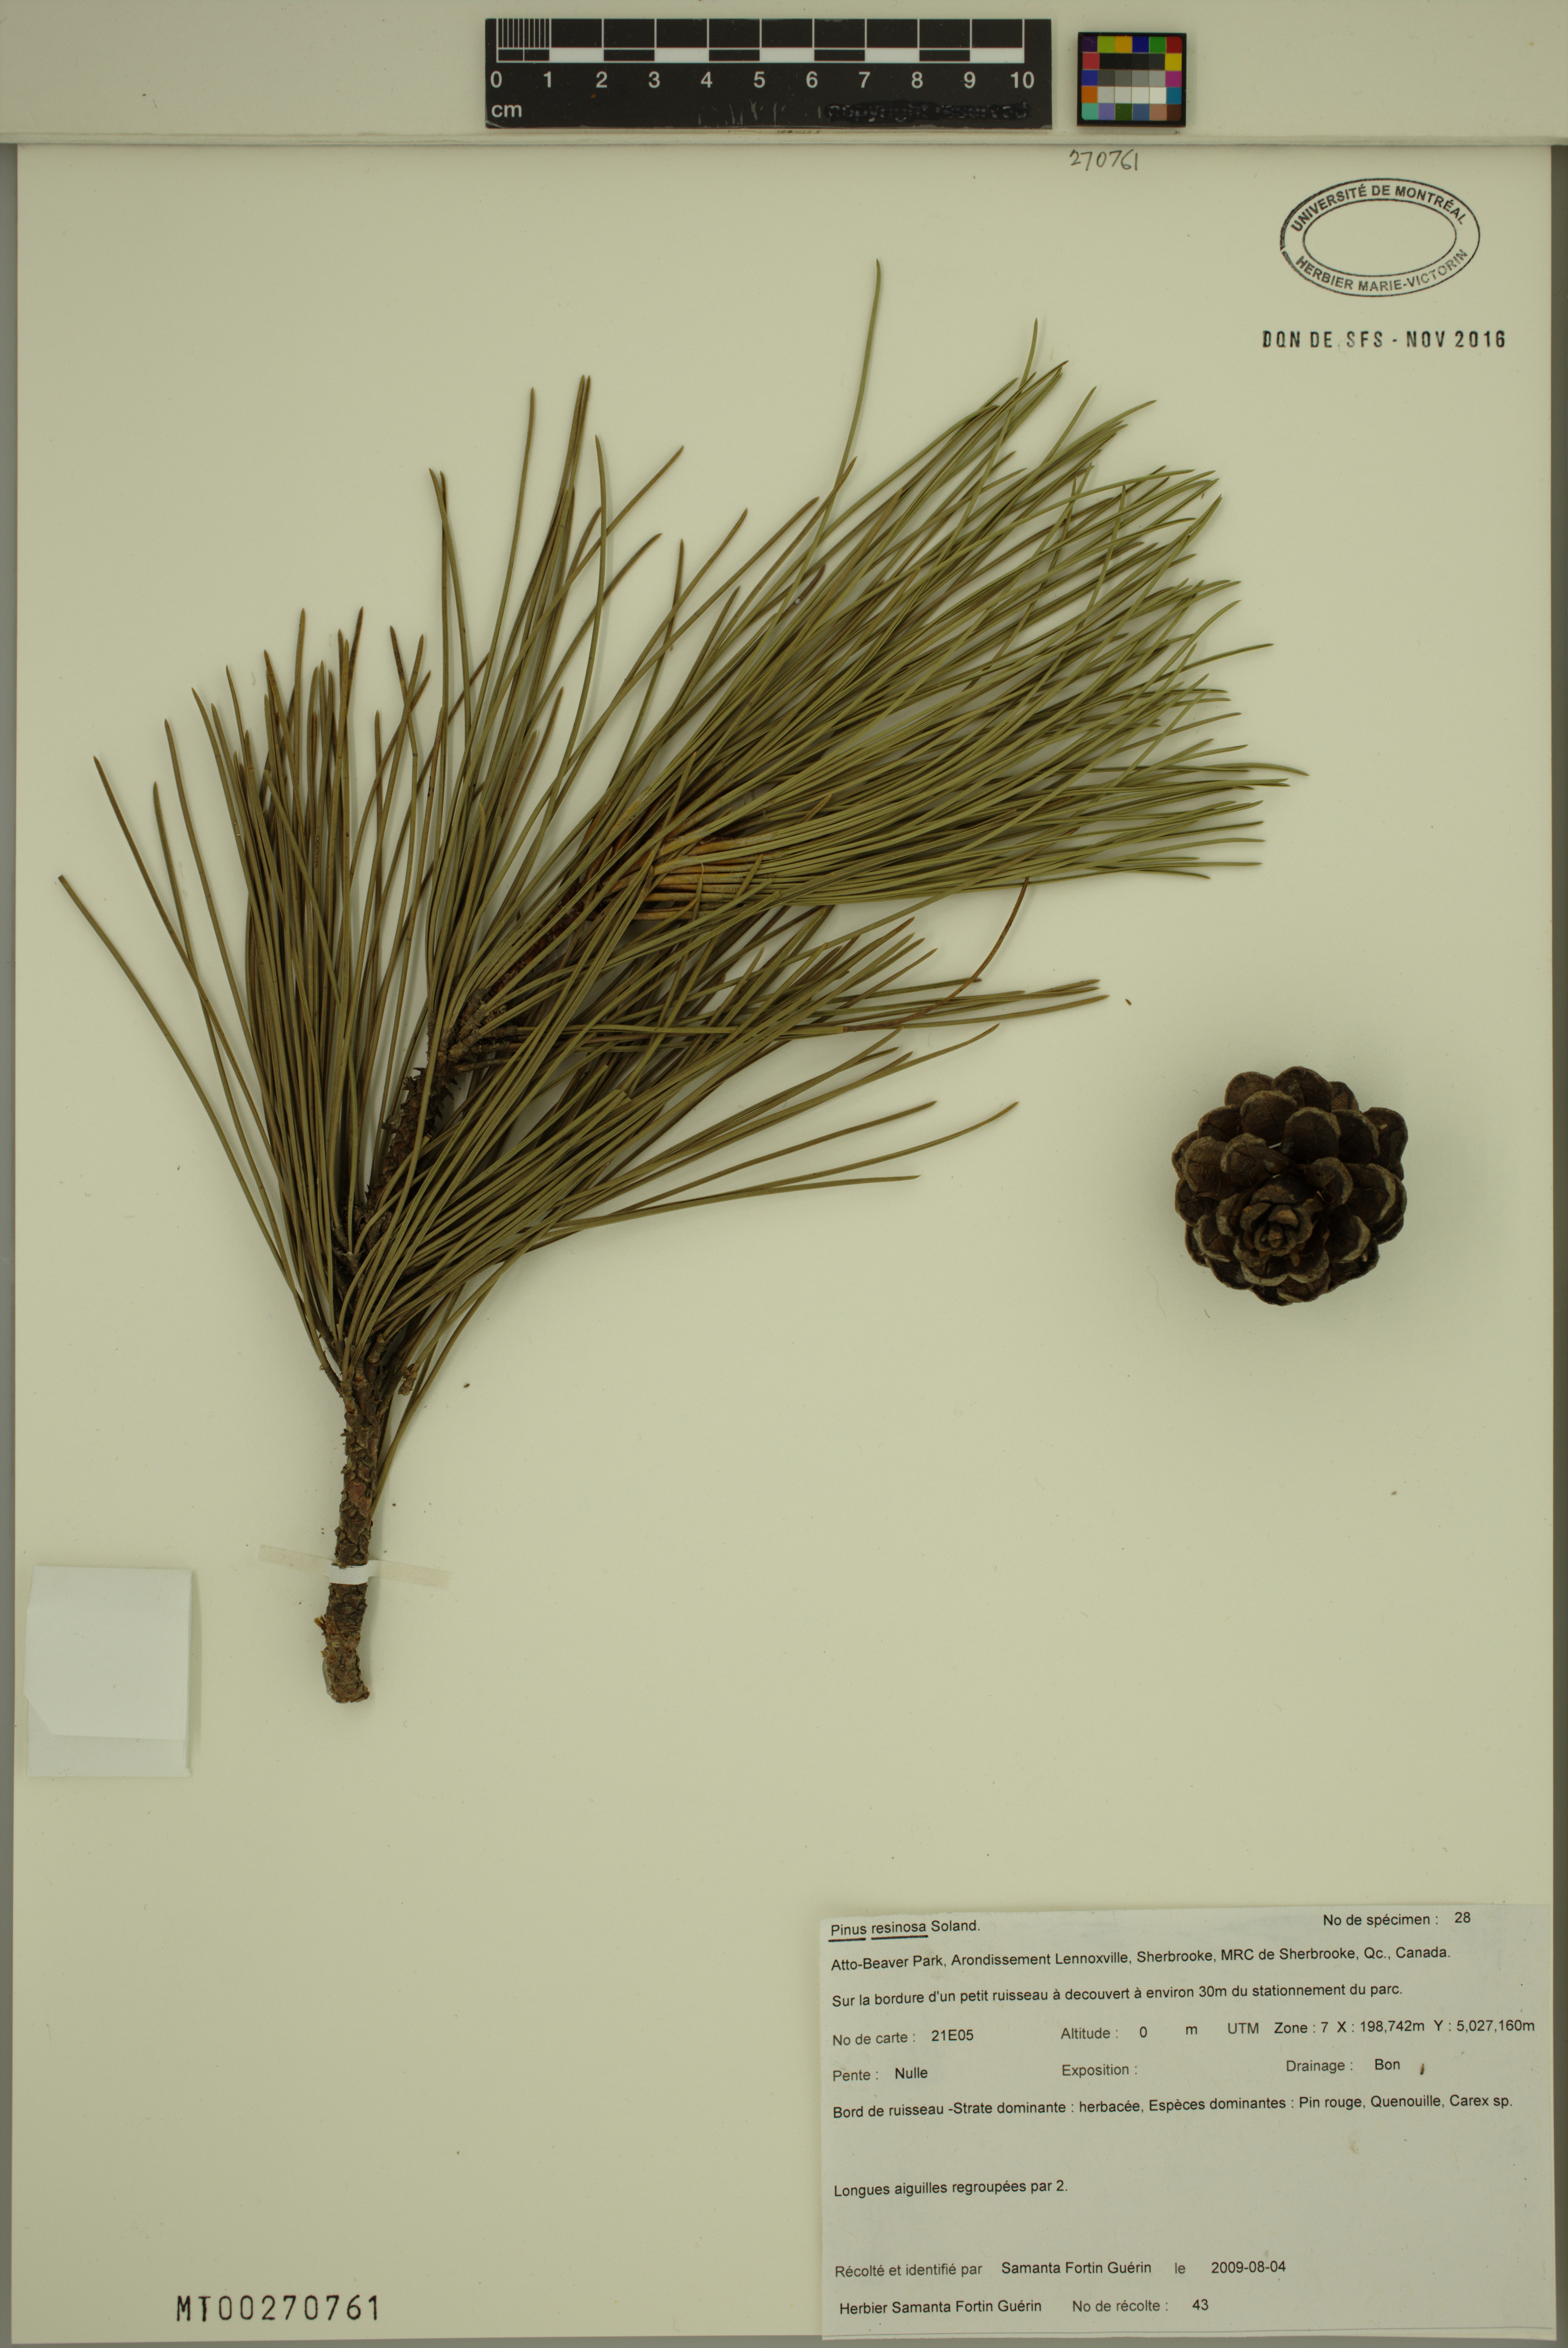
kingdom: Plantae
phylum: Tracheophyta
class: Pinopsida
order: Pinales
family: Pinaceae
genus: Pinus
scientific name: Pinus resinosa
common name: Norway pine
